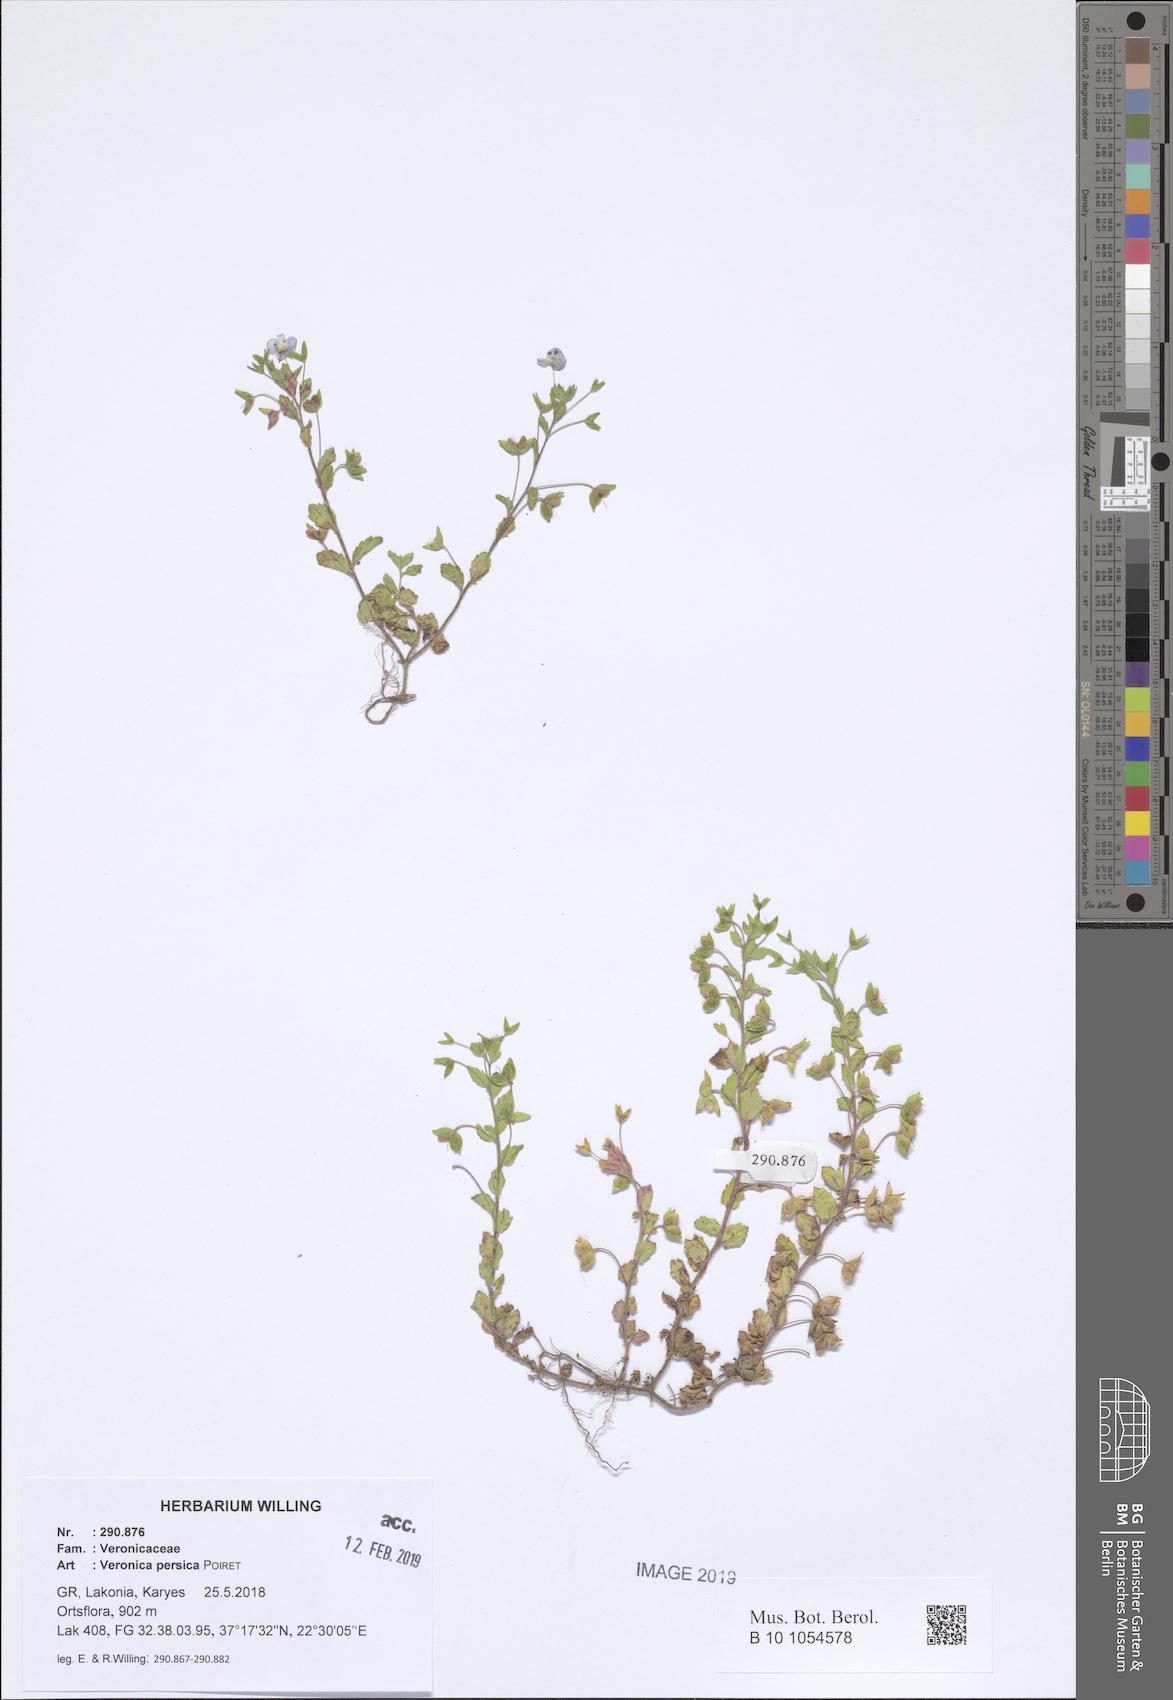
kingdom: Plantae
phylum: Tracheophyta
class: Magnoliopsida
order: Lamiales
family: Plantaginaceae
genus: Veronica
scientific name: Veronica persica
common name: Common field-speedwell
